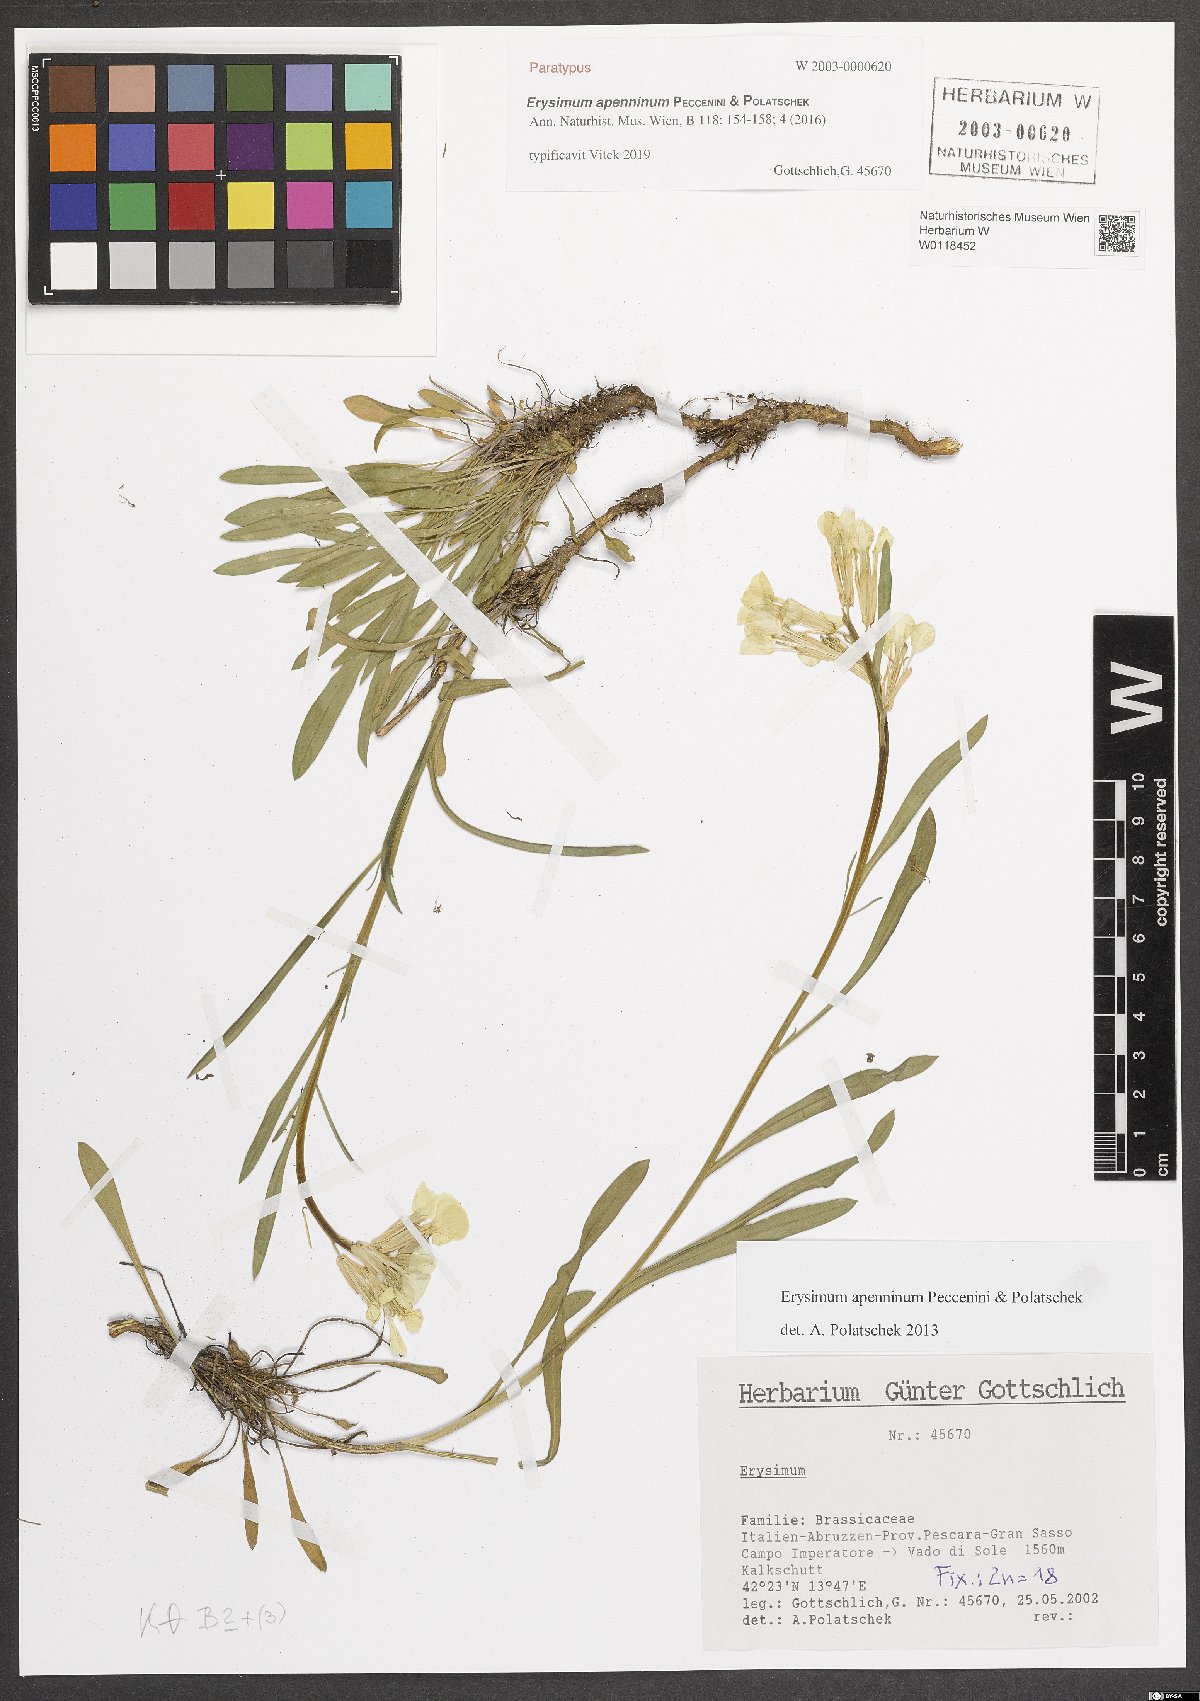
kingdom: Plantae
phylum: Tracheophyta
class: Magnoliopsida
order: Brassicales
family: Brassicaceae
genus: Erysimum
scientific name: Erysimum apenninum
